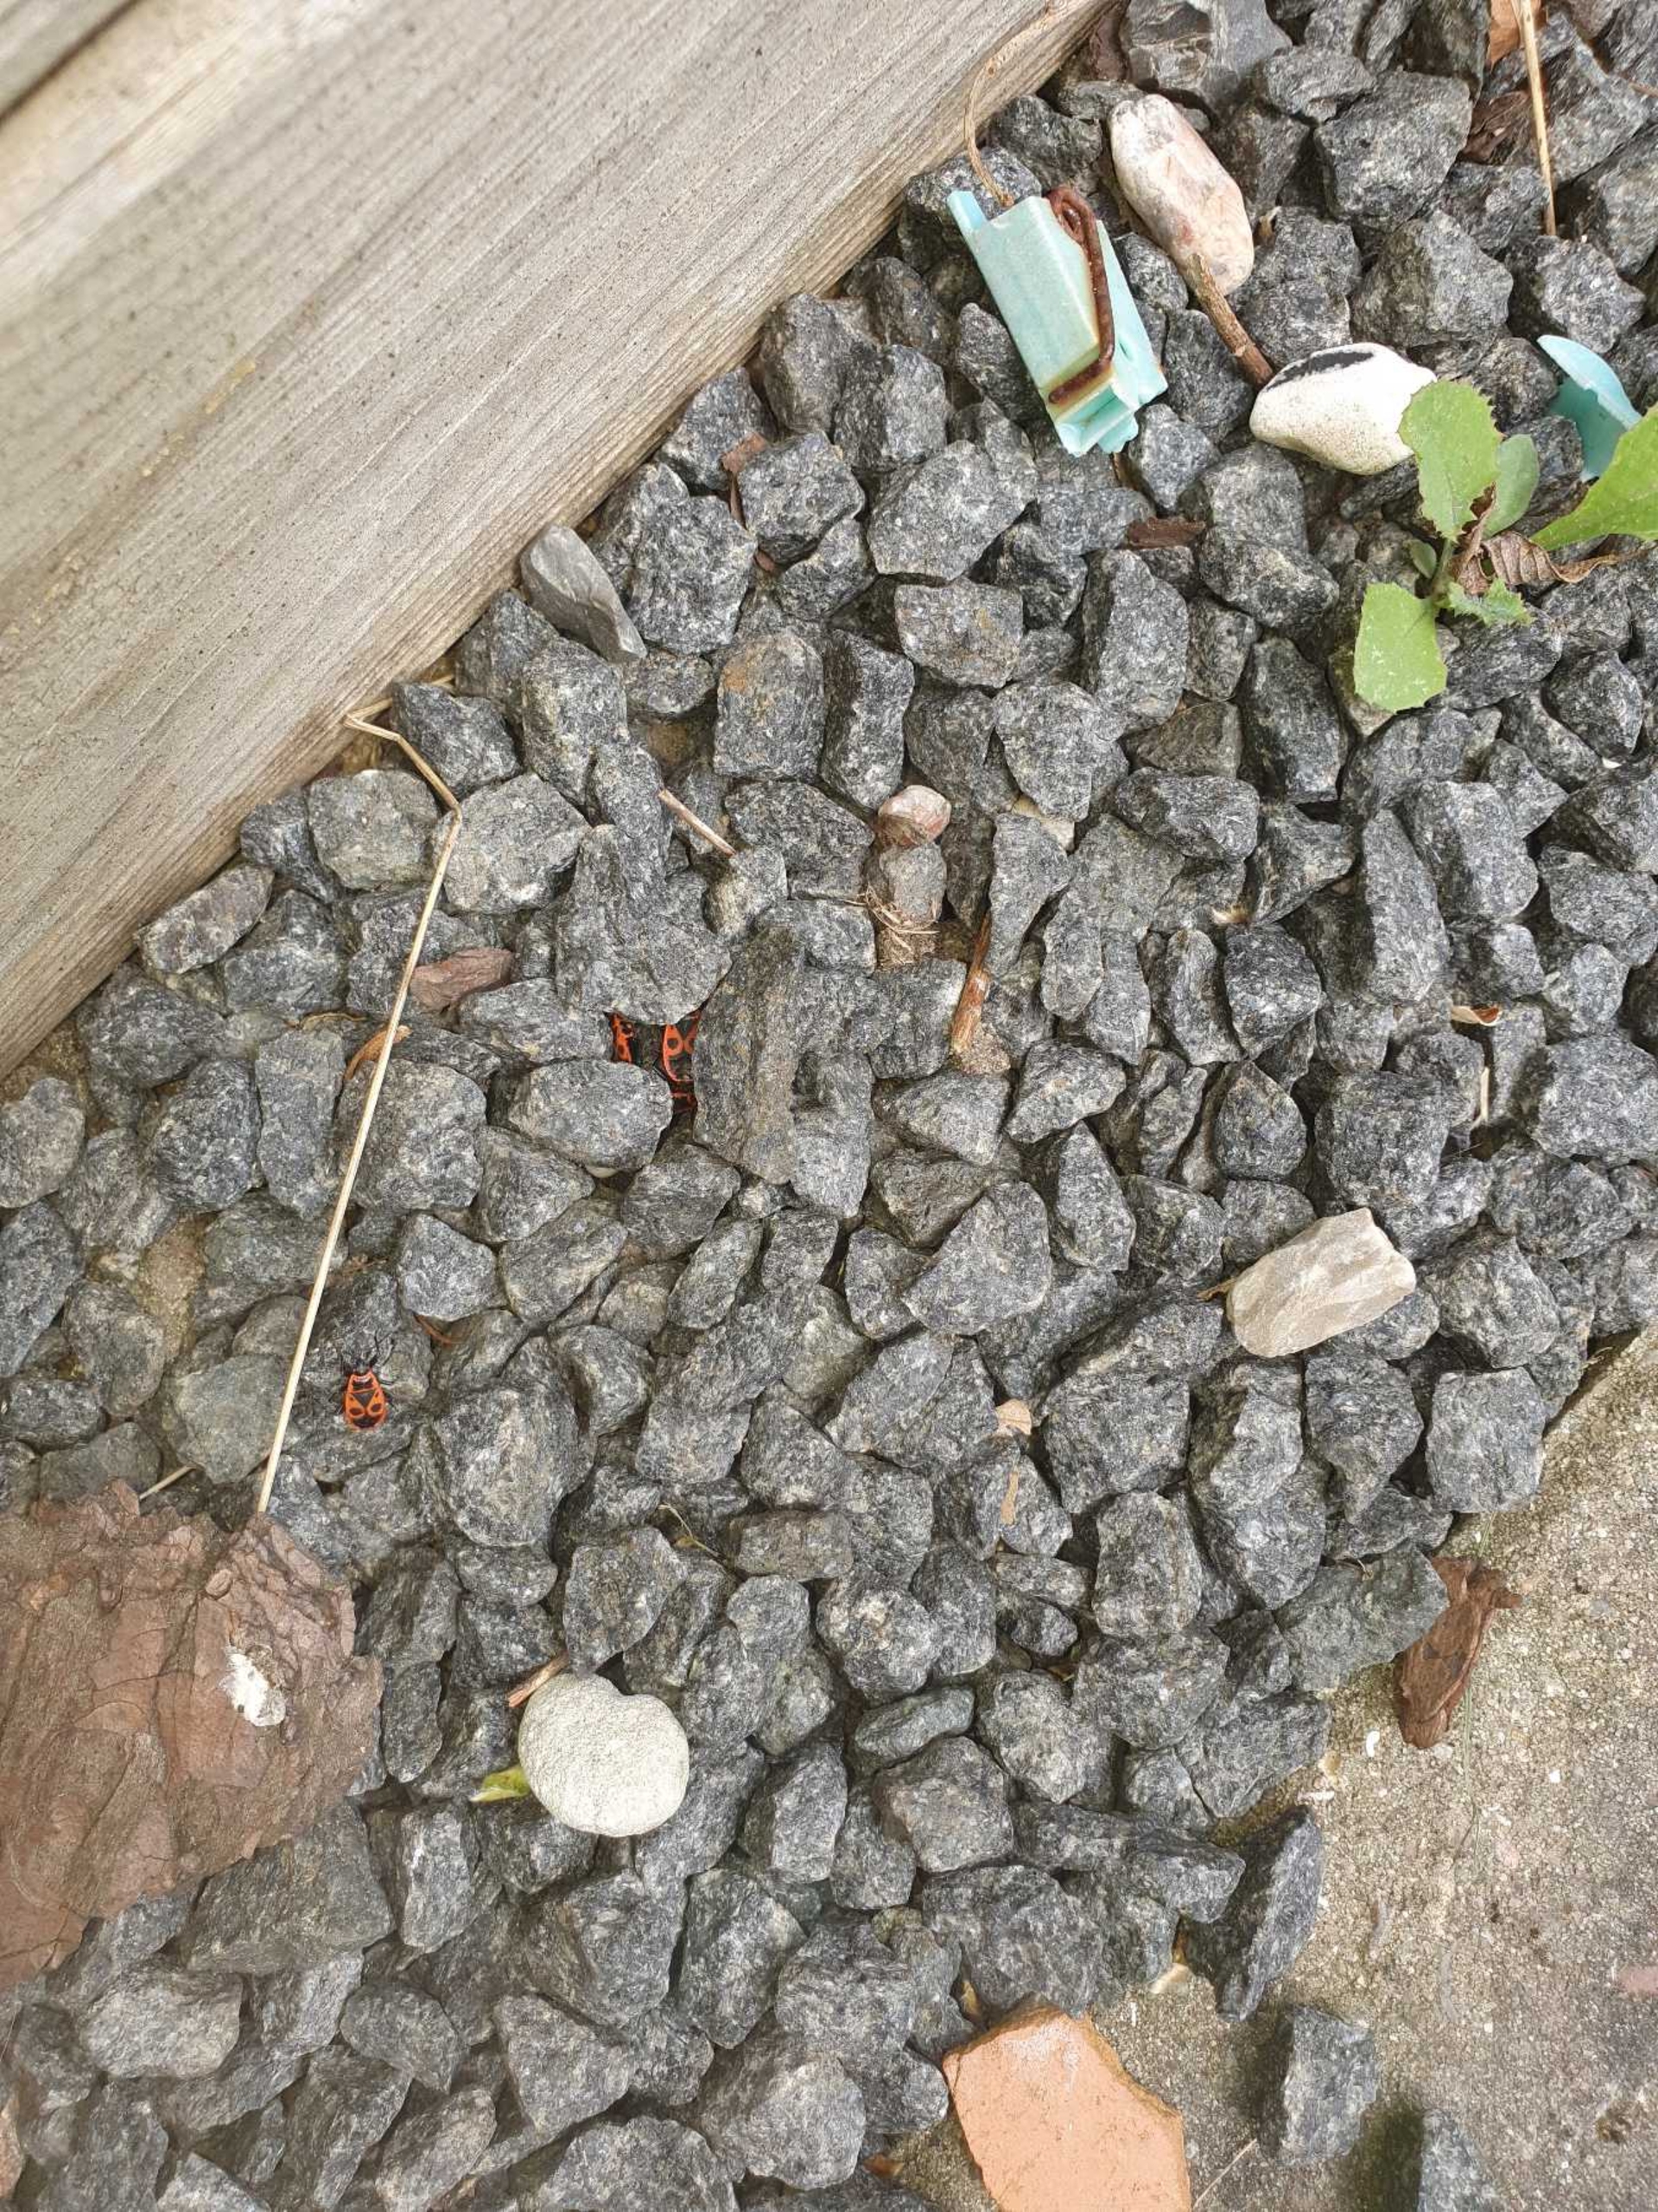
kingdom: Animalia
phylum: Arthropoda
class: Insecta
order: Hemiptera
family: Pyrrhocoridae
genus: Pyrrhocoris
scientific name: Pyrrhocoris apterus
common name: Ildtæge
